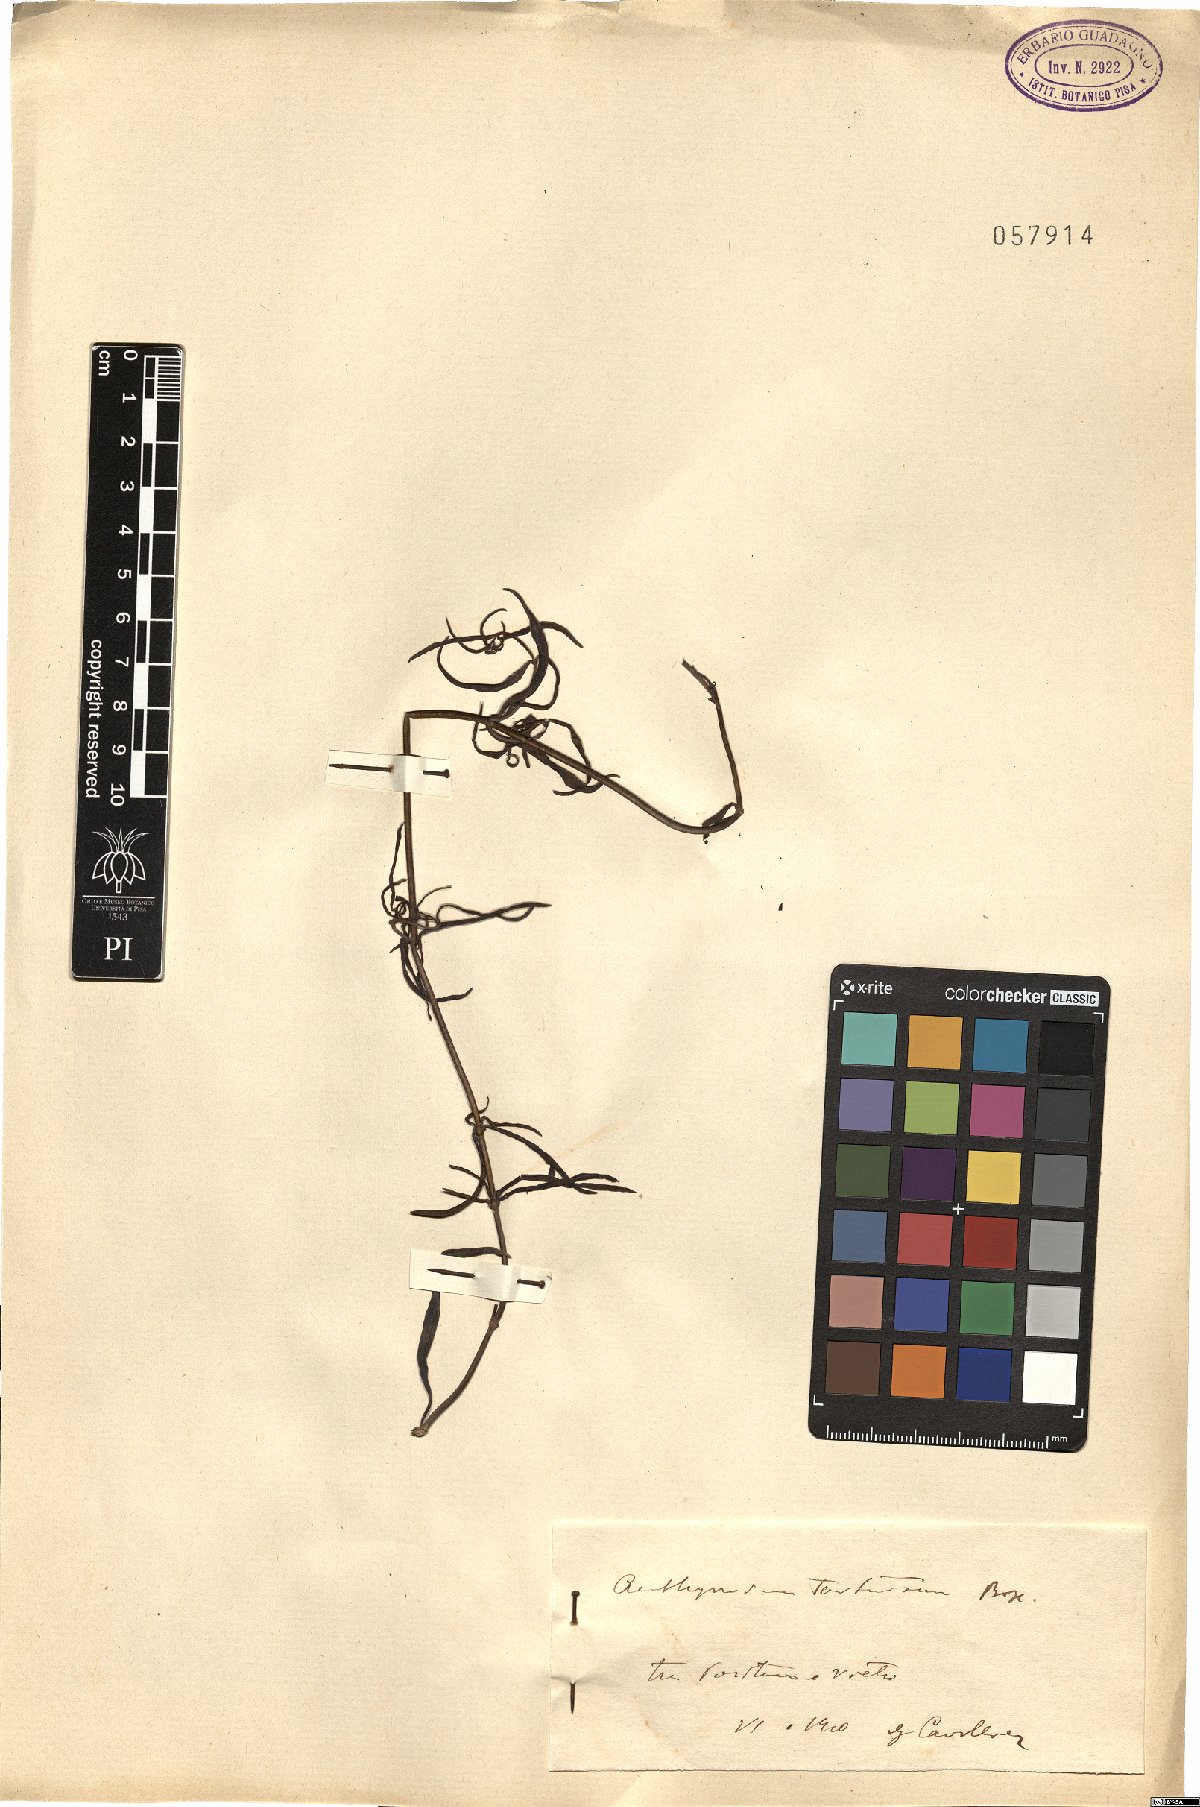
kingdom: Plantae
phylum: Tracheophyta
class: Magnoliopsida
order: Lamiales
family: Plantaginaceae
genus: Antirrhinum
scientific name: Antirrhinum tortuosum
